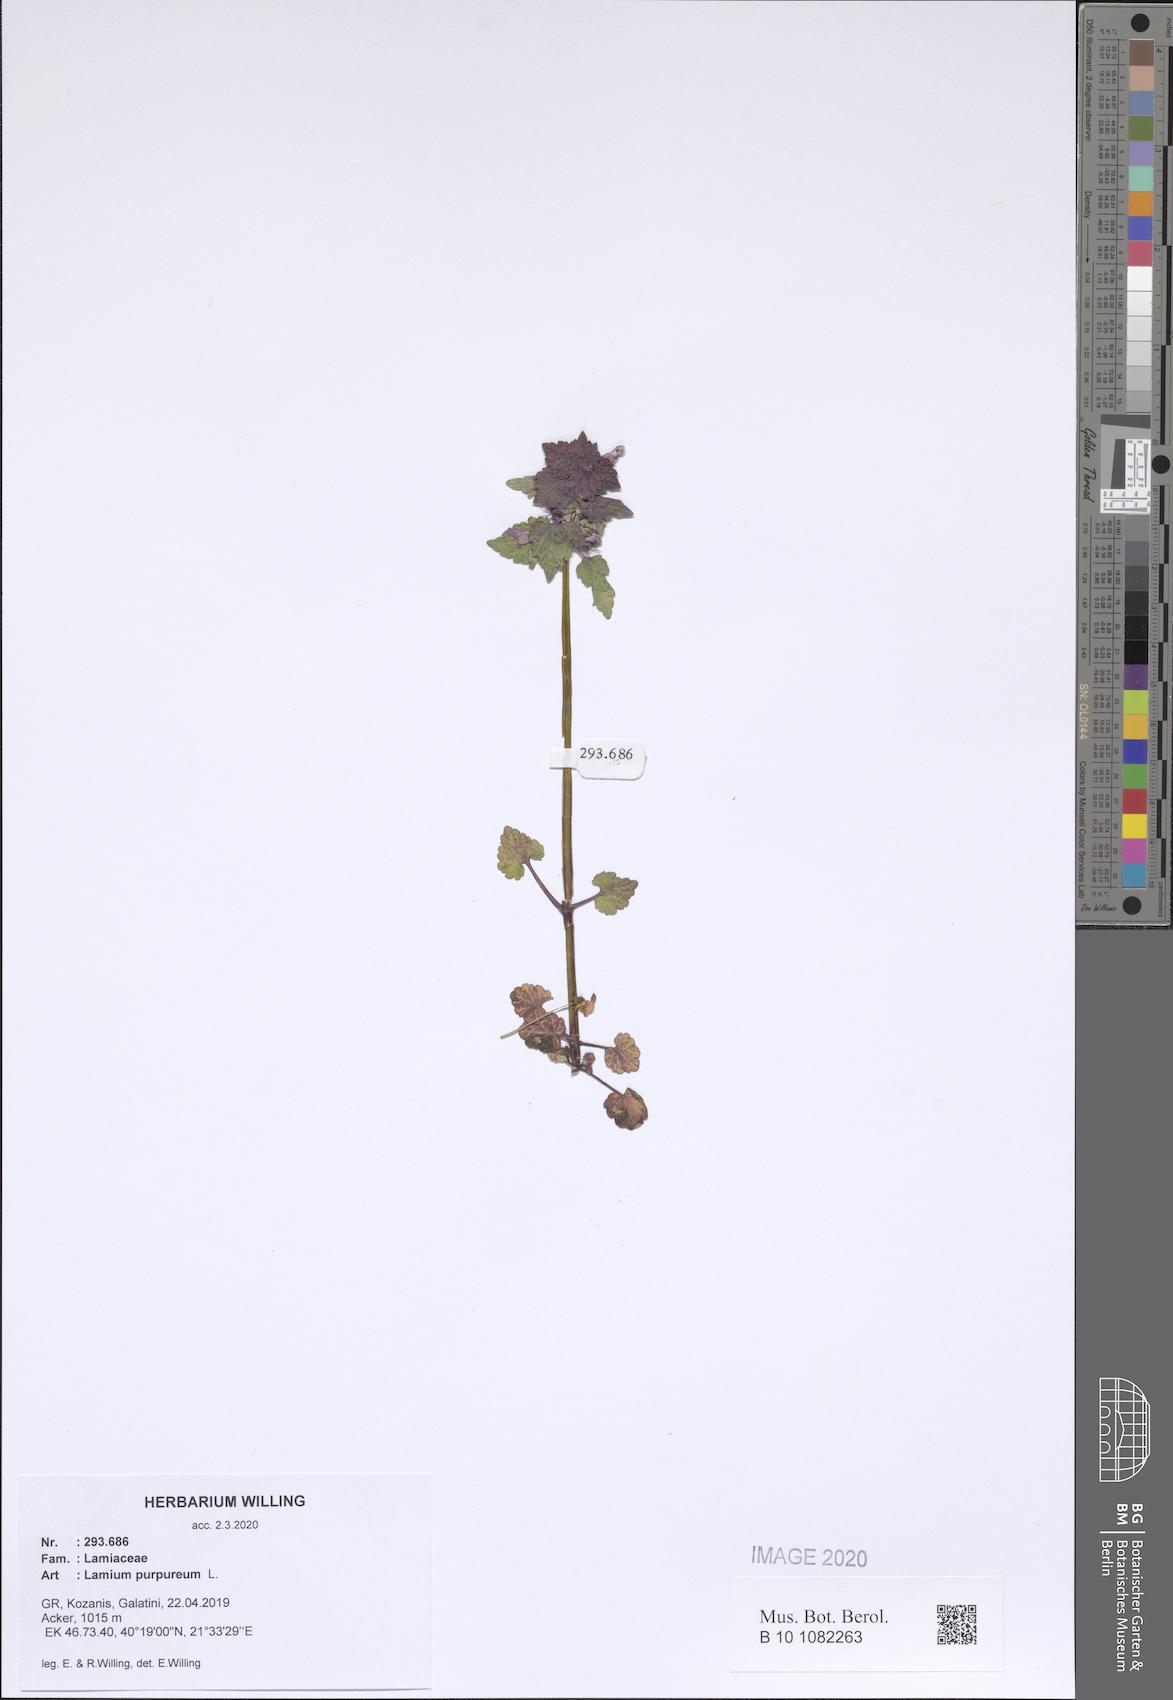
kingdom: Plantae
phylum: Tracheophyta
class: Magnoliopsida
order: Lamiales
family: Lamiaceae
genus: Lamium
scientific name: Lamium purpureum
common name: Red dead-nettle
